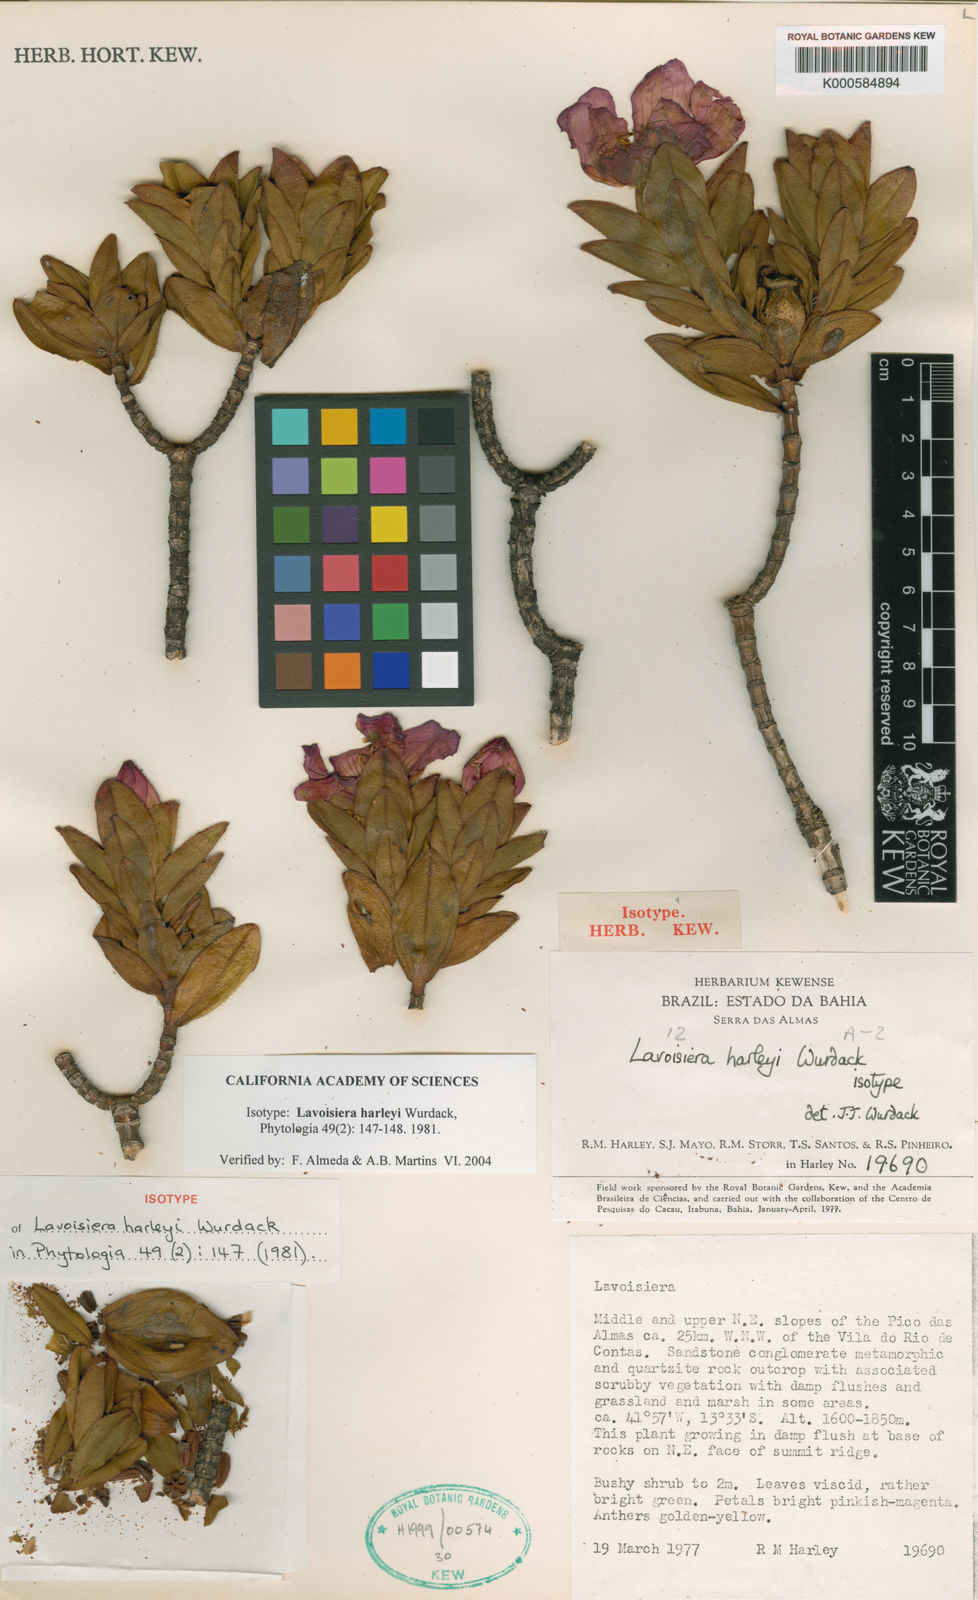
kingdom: Plantae
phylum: Tracheophyta
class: Magnoliopsida
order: Myrtales
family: Melastomataceae
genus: Microlicia
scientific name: Microlicia raymondii
